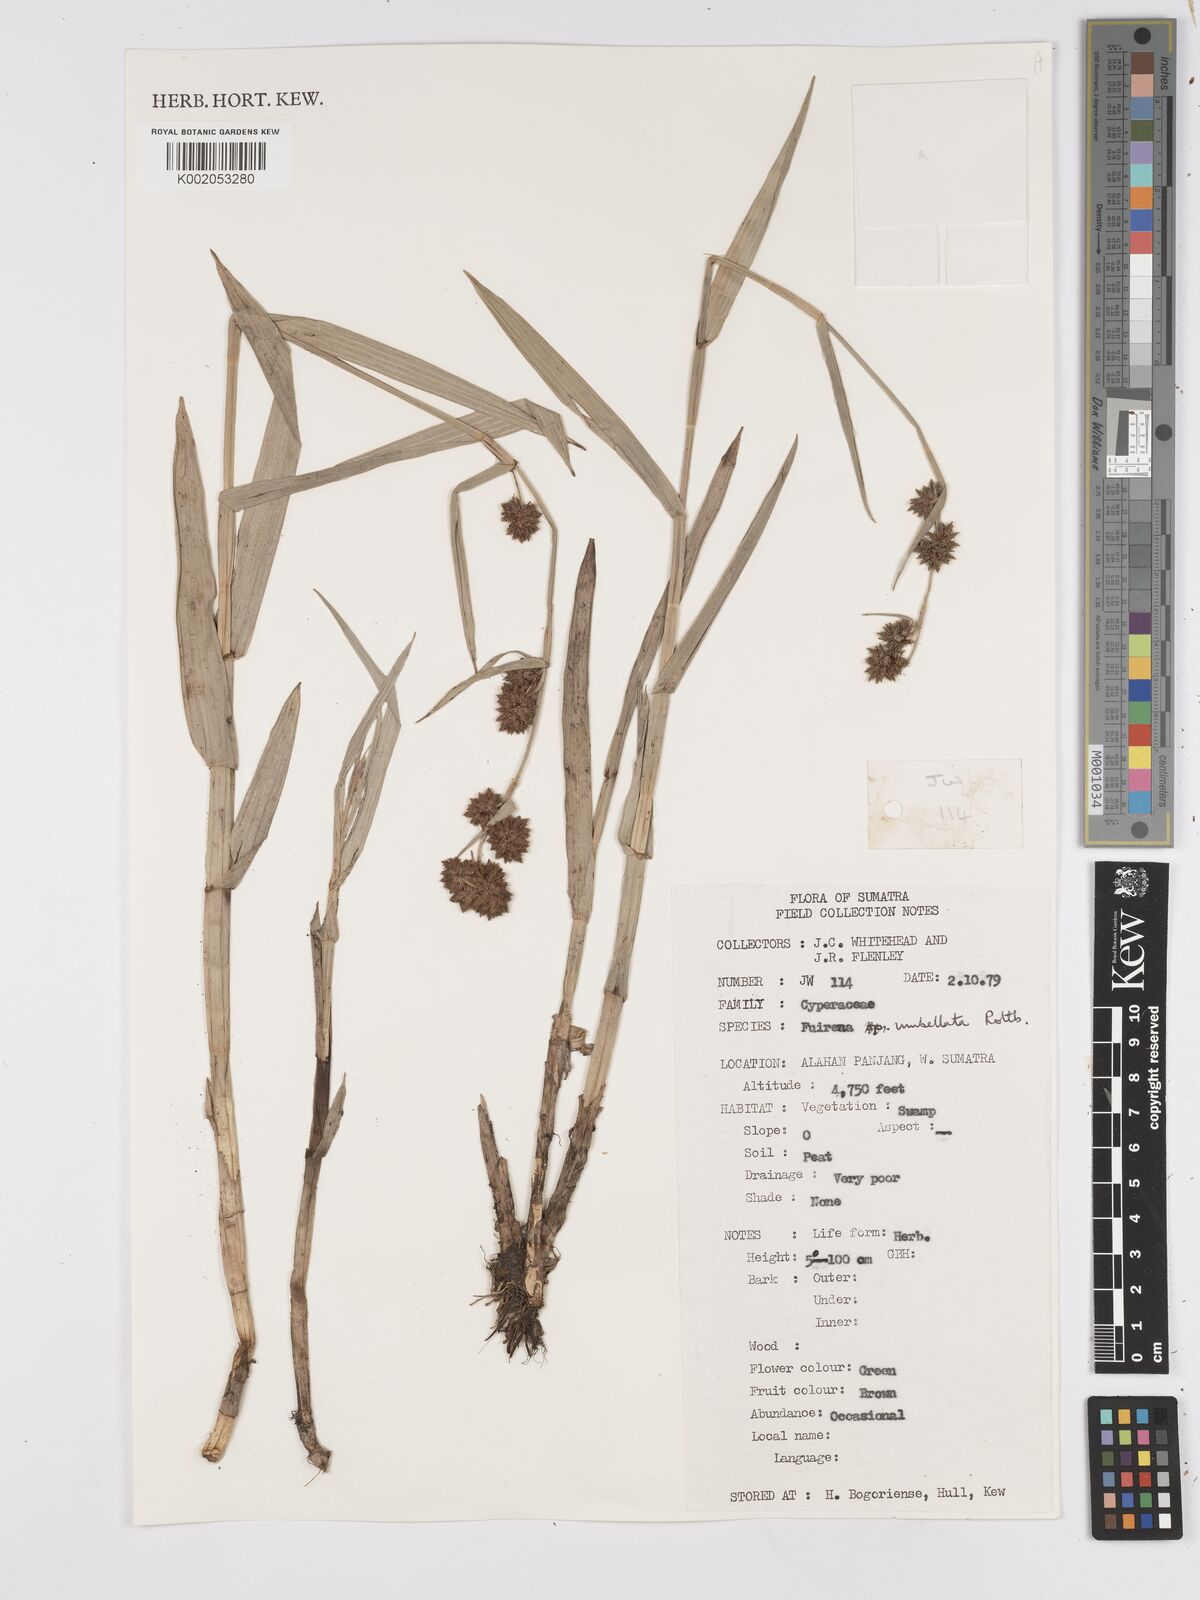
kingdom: Plantae
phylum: Tracheophyta
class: Liliopsida
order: Poales
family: Cyperaceae
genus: Fuirena
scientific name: Fuirena umbellata
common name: Yefen
